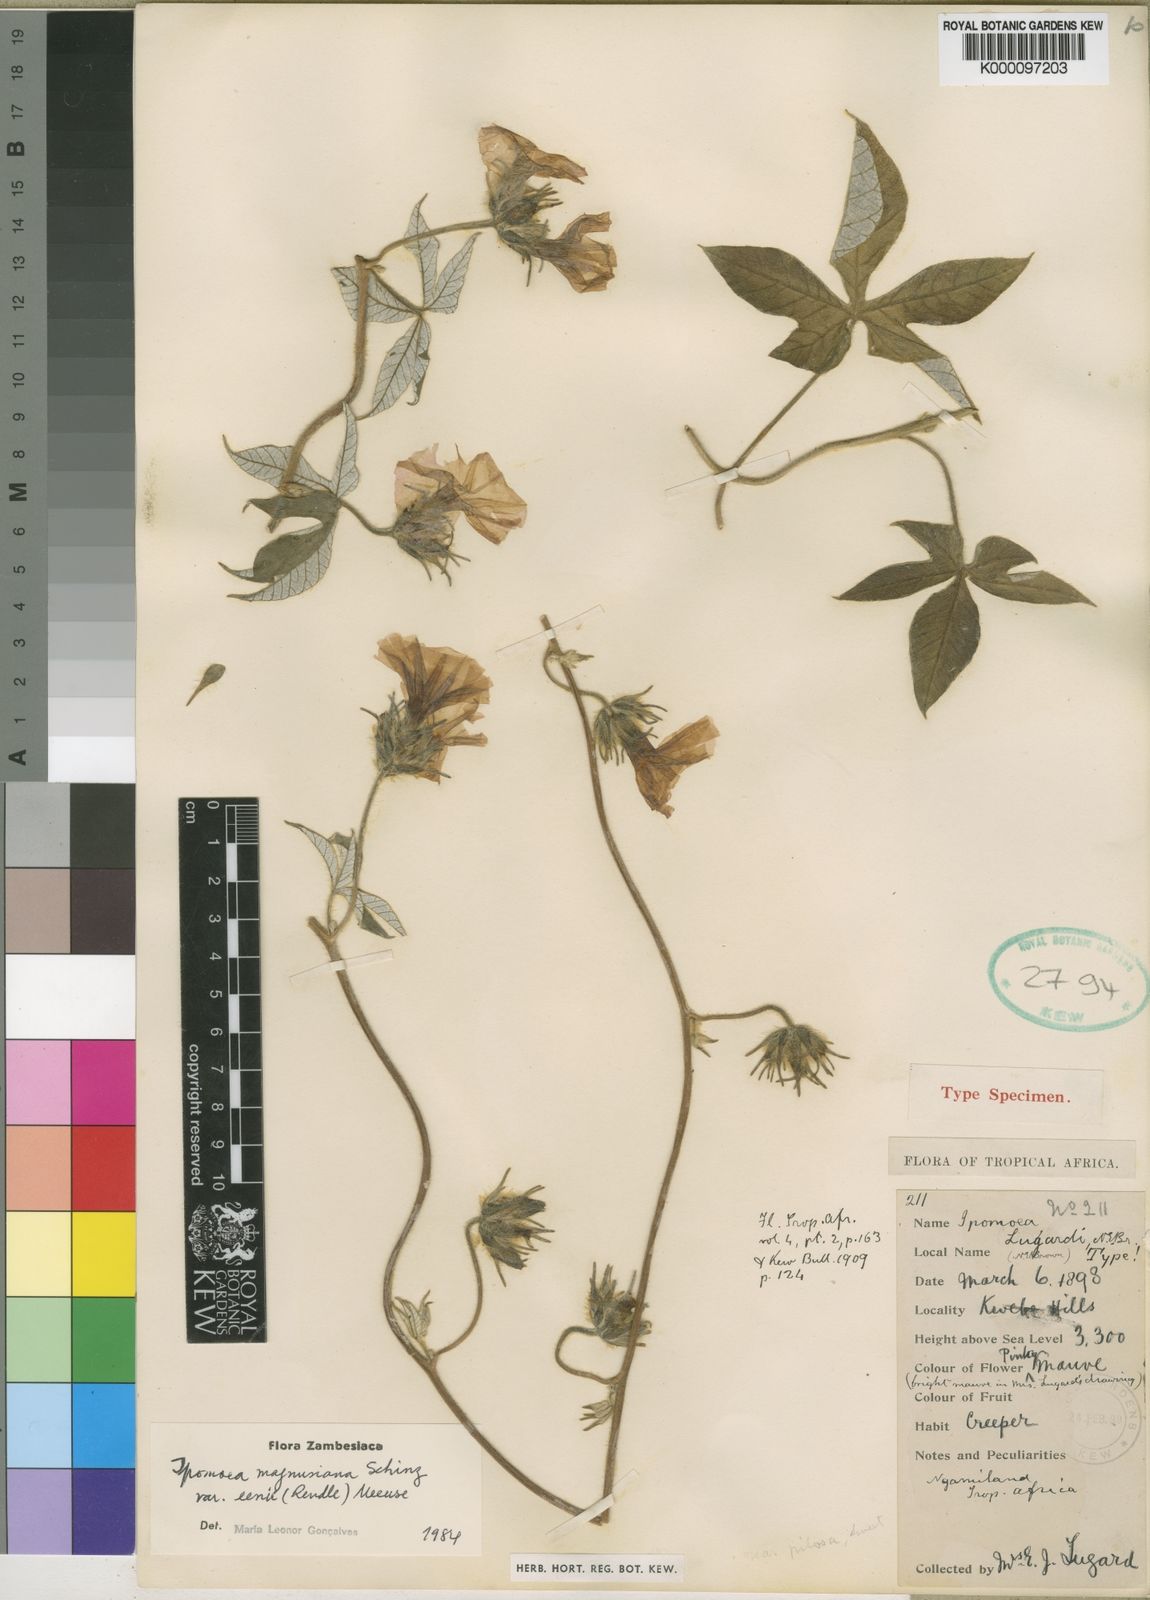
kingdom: Plantae
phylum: Tracheophyta
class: Magnoliopsida
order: Solanales
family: Convolvulaceae
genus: Ipomoea
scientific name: Ipomoea magnusiana
